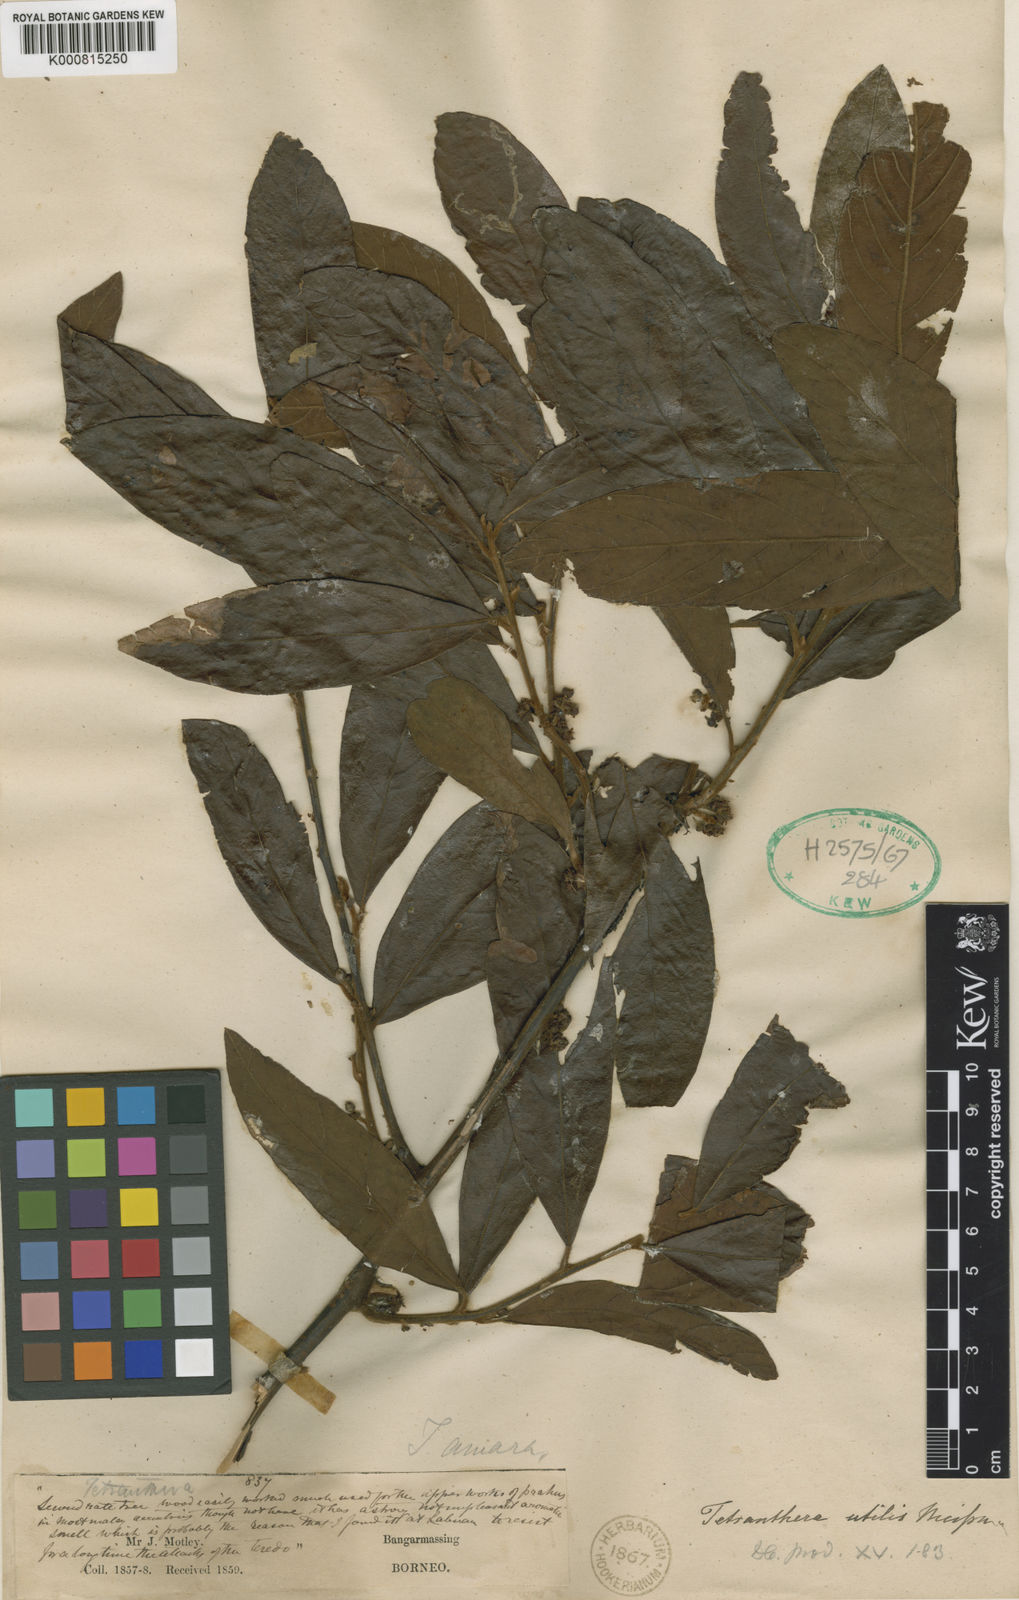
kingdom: Plantae
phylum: Tracheophyta
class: Magnoliopsida
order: Laurales
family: Lauraceae
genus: Litsea
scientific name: Litsea utilis
